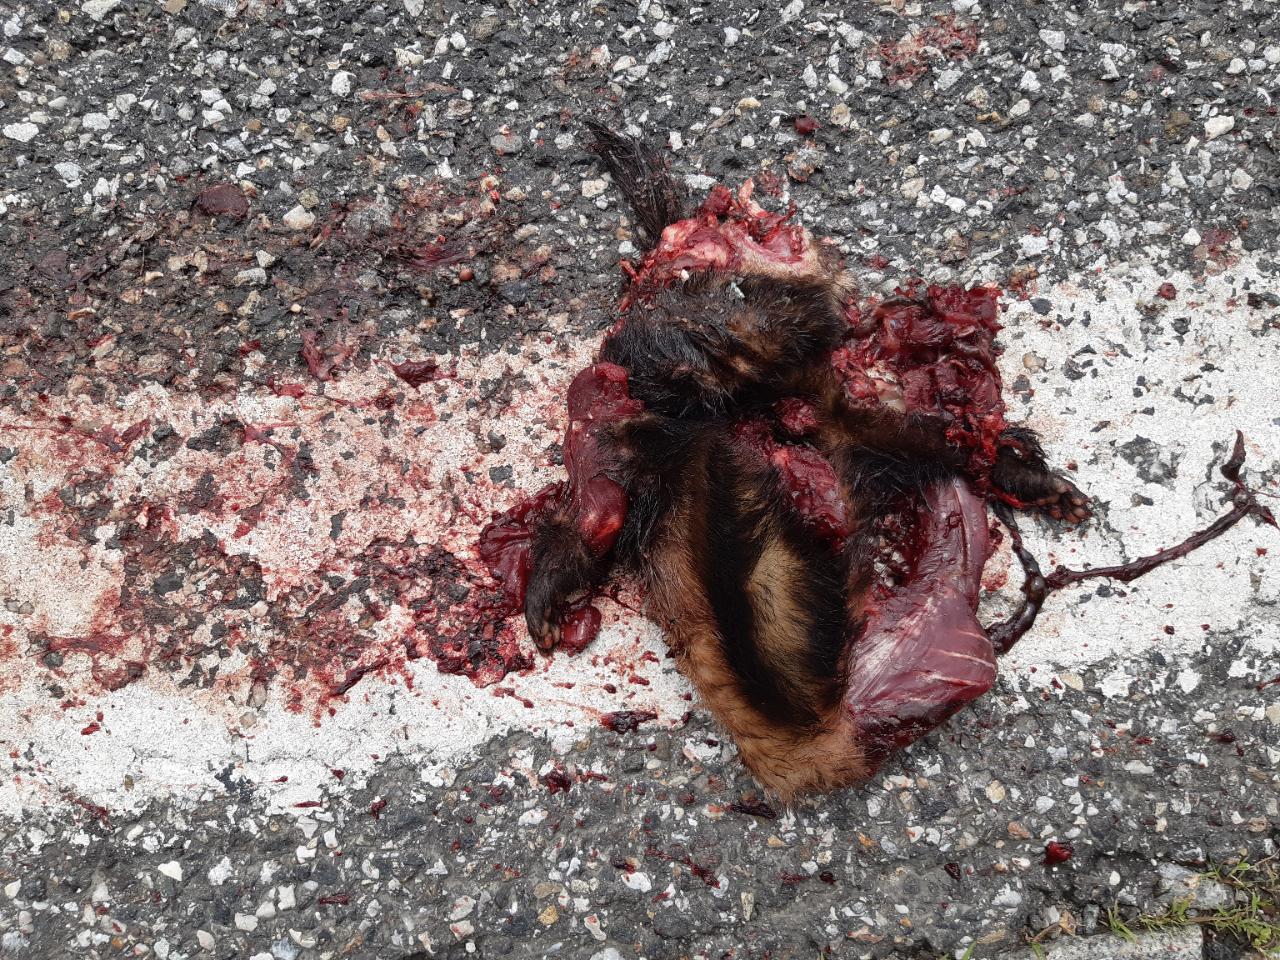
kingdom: Animalia
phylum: Chordata
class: Mammalia
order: Carnivora
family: Mustelidae
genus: Mustela
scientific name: Mustela putorius
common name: European polecat
